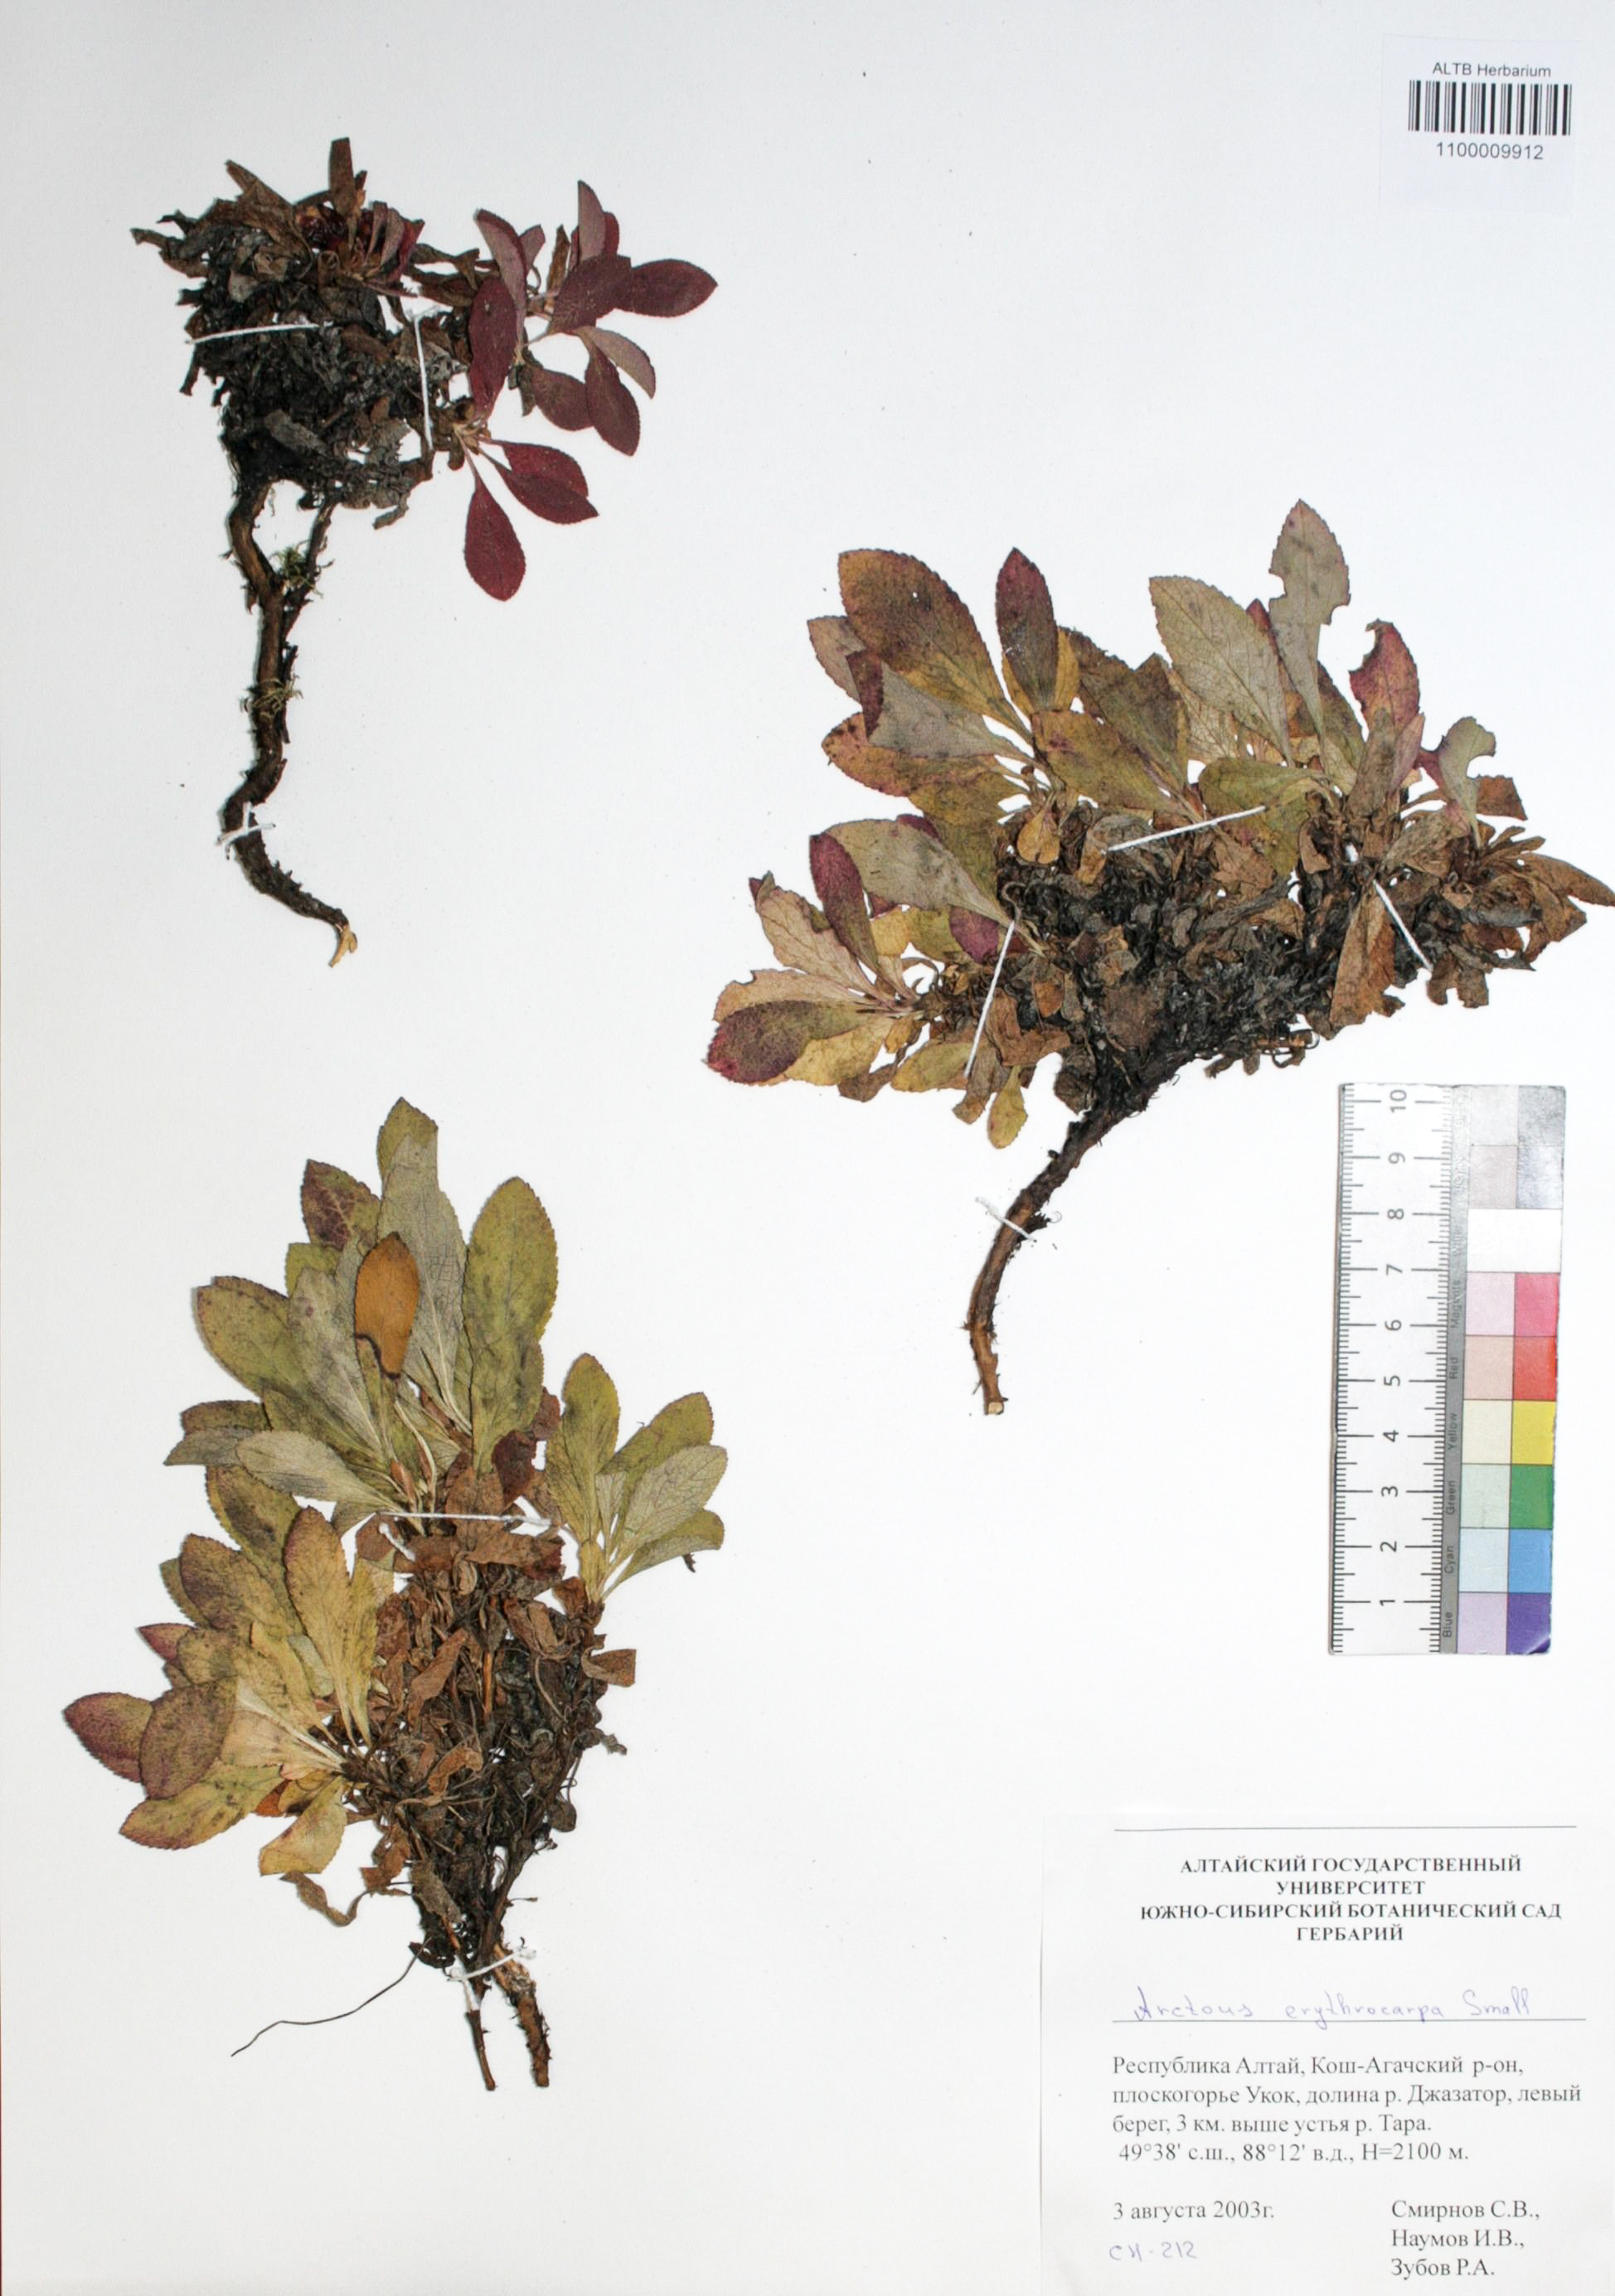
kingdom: Plantae
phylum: Tracheophyta
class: Magnoliopsida
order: Ericales
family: Ericaceae
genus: Arctostaphylos
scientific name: Arctostaphylos rubra
